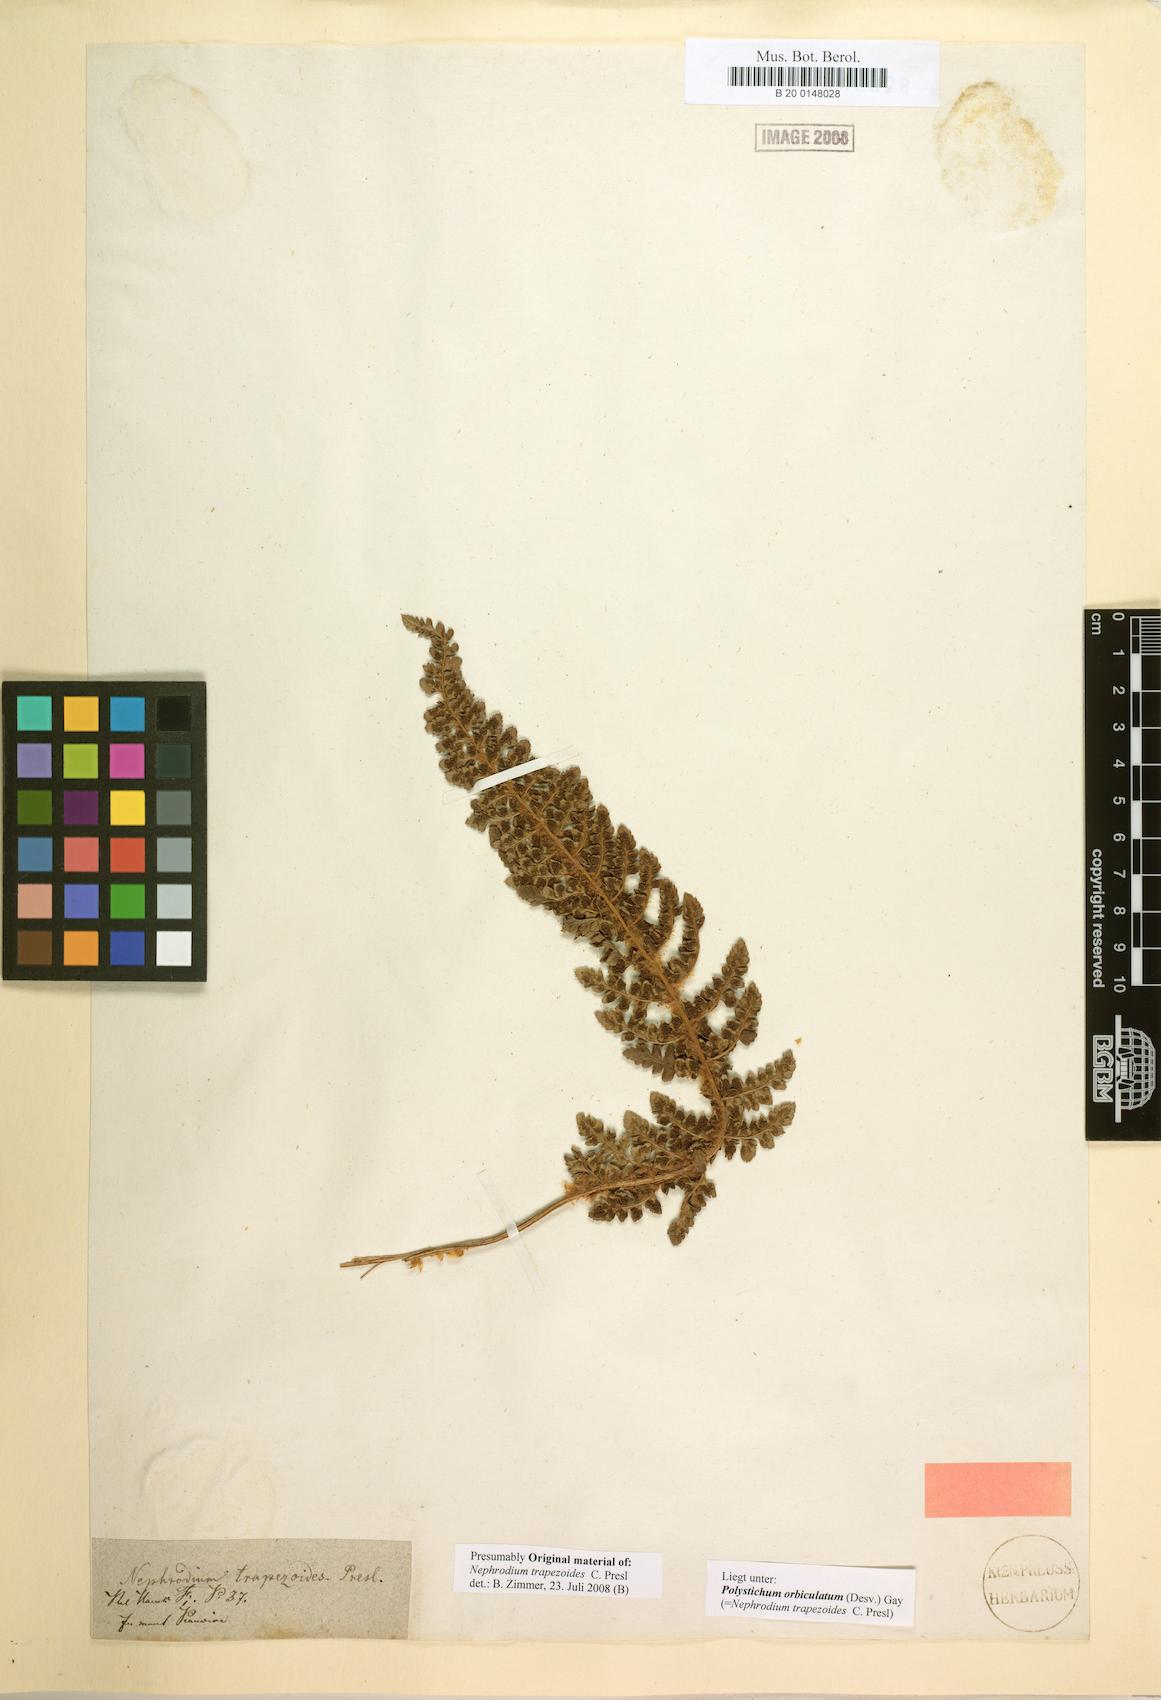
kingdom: Plantae
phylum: Tracheophyta
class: Polypodiopsida
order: Polypodiales
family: Dryopteridaceae
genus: Polystichum
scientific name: Polystichum orbiculatum
